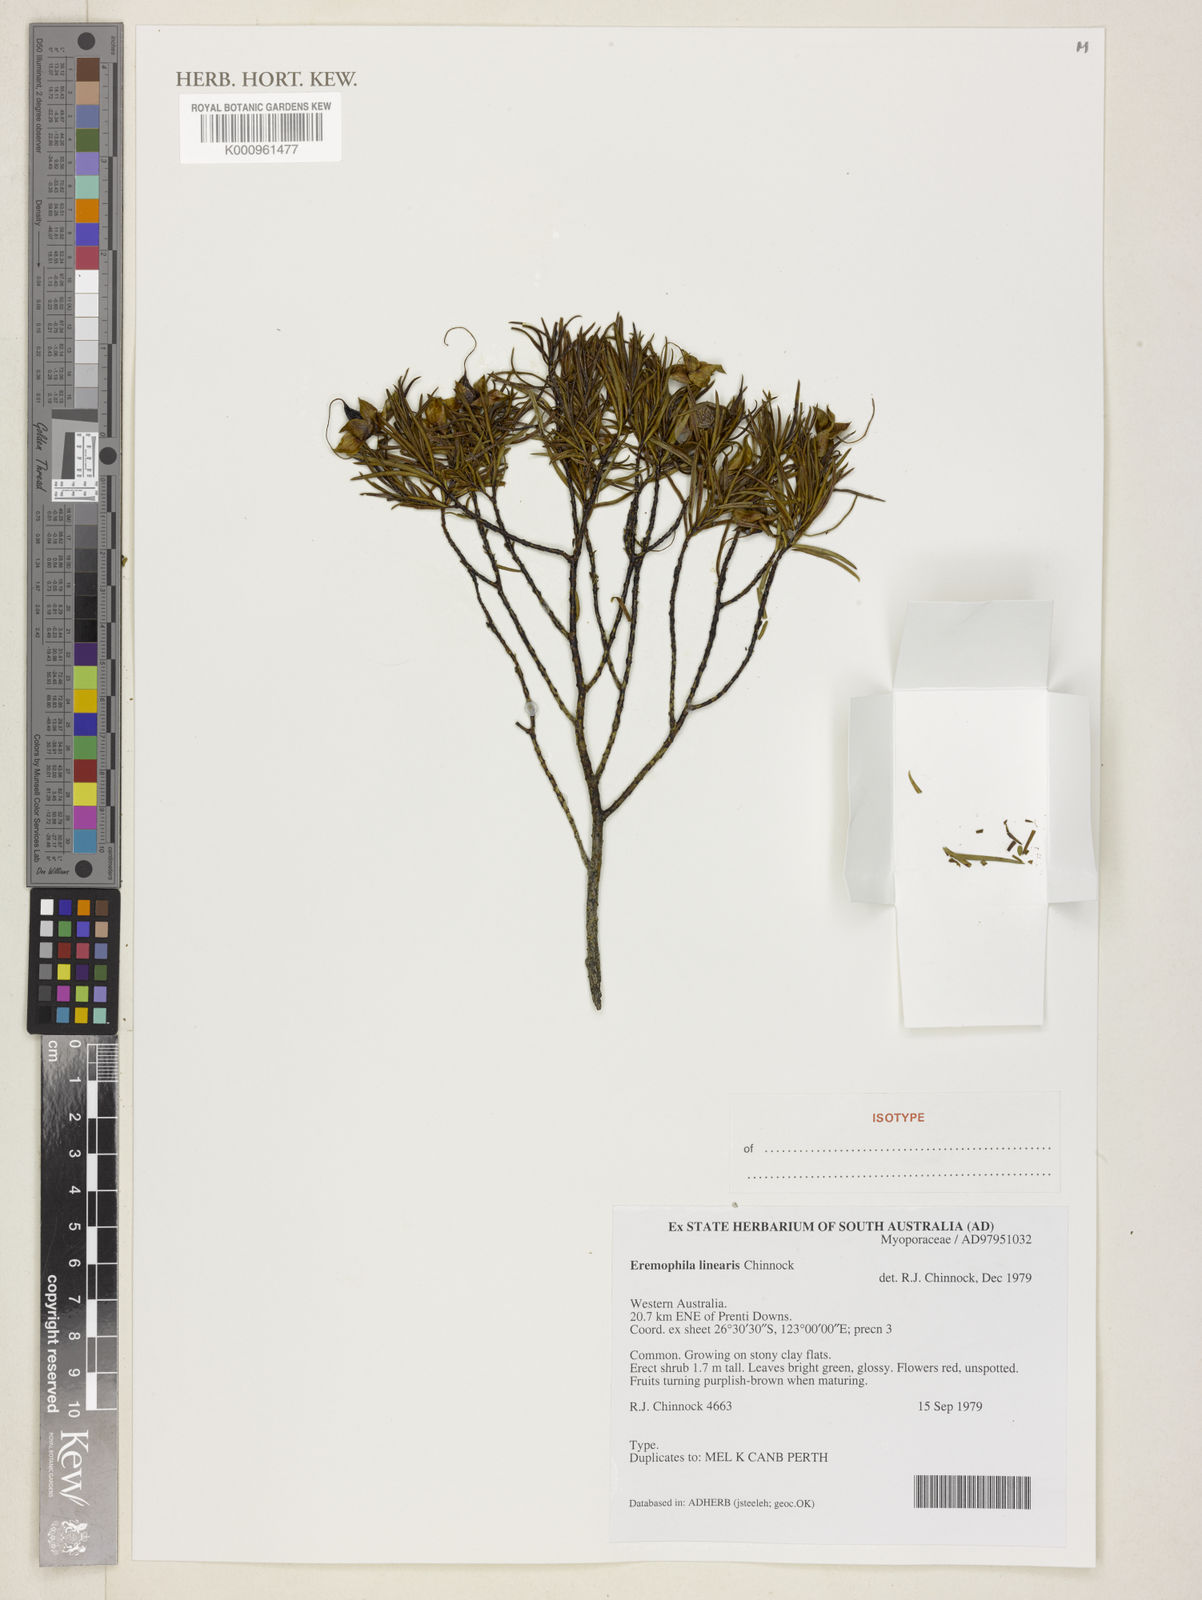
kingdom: Plantae
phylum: Tracheophyta
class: Magnoliopsida
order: Lamiales
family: Scrophulariaceae
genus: Eremophila
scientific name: Eremophila linearis
